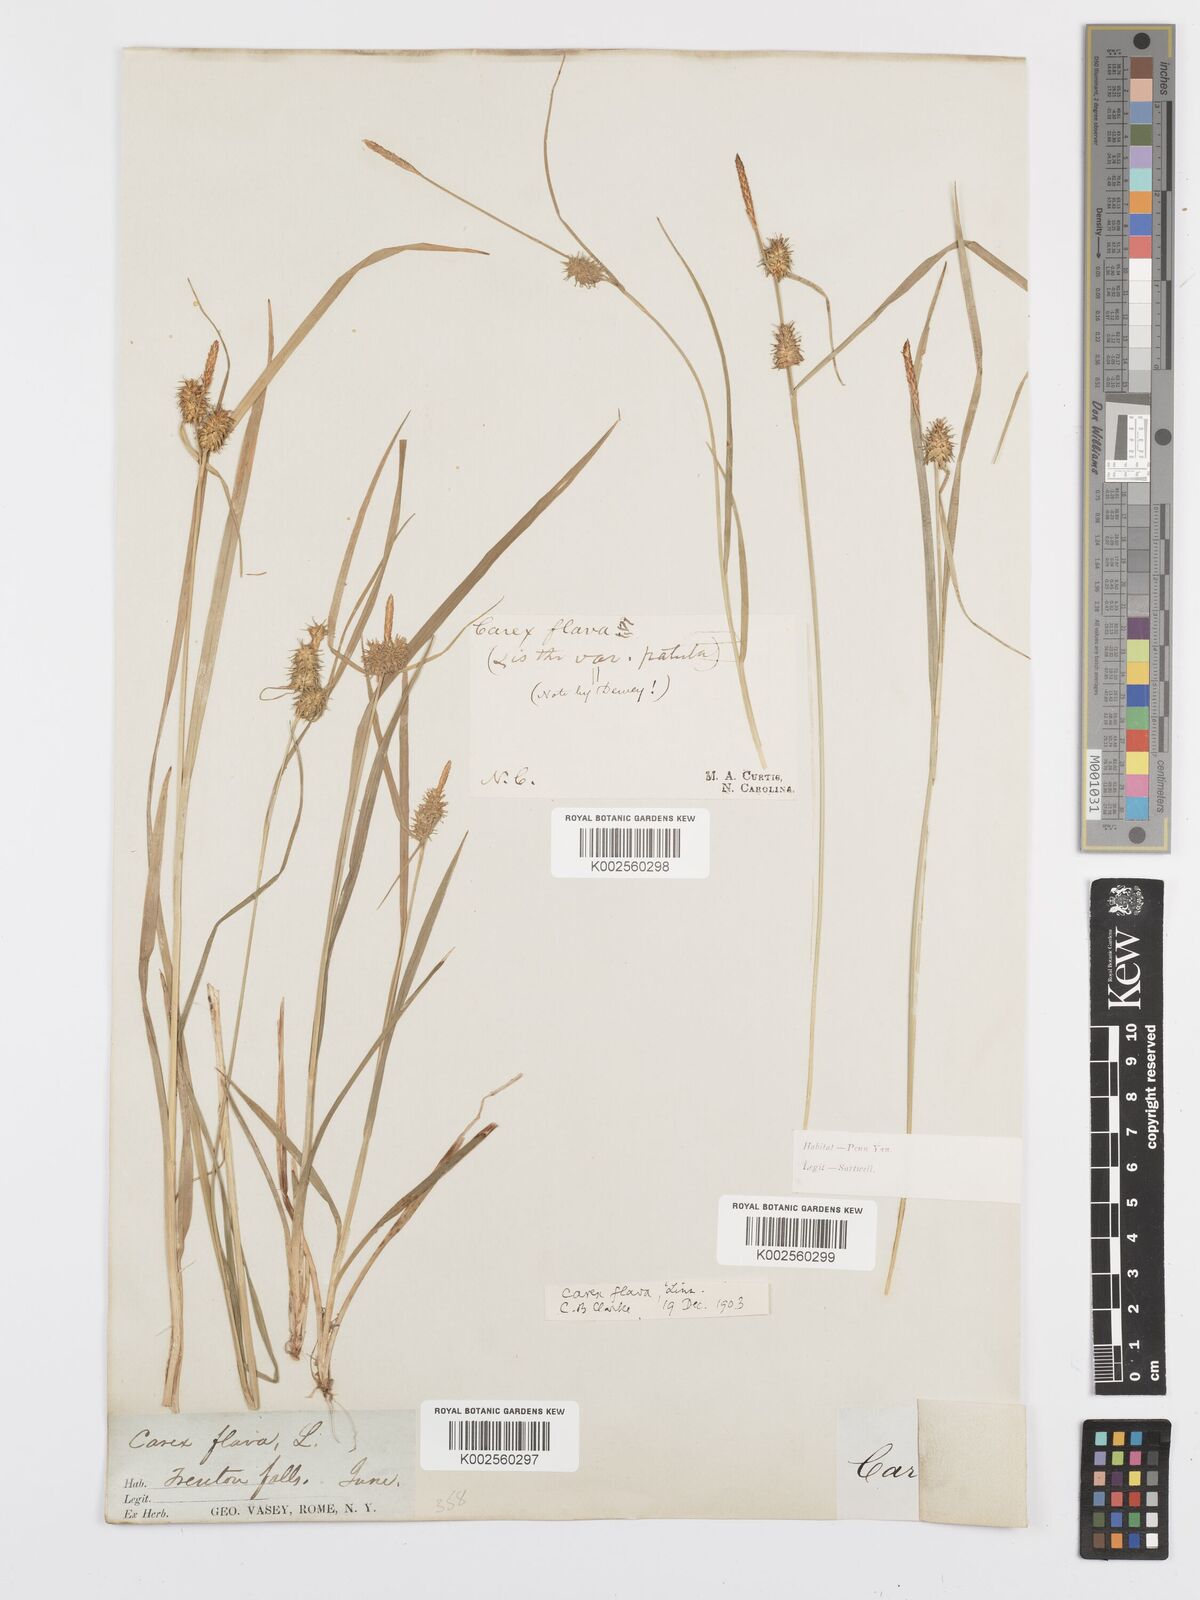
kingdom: Plantae
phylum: Tracheophyta
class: Liliopsida
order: Poales
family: Cyperaceae
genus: Carex
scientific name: Carex flava
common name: Large yellow-sedge
